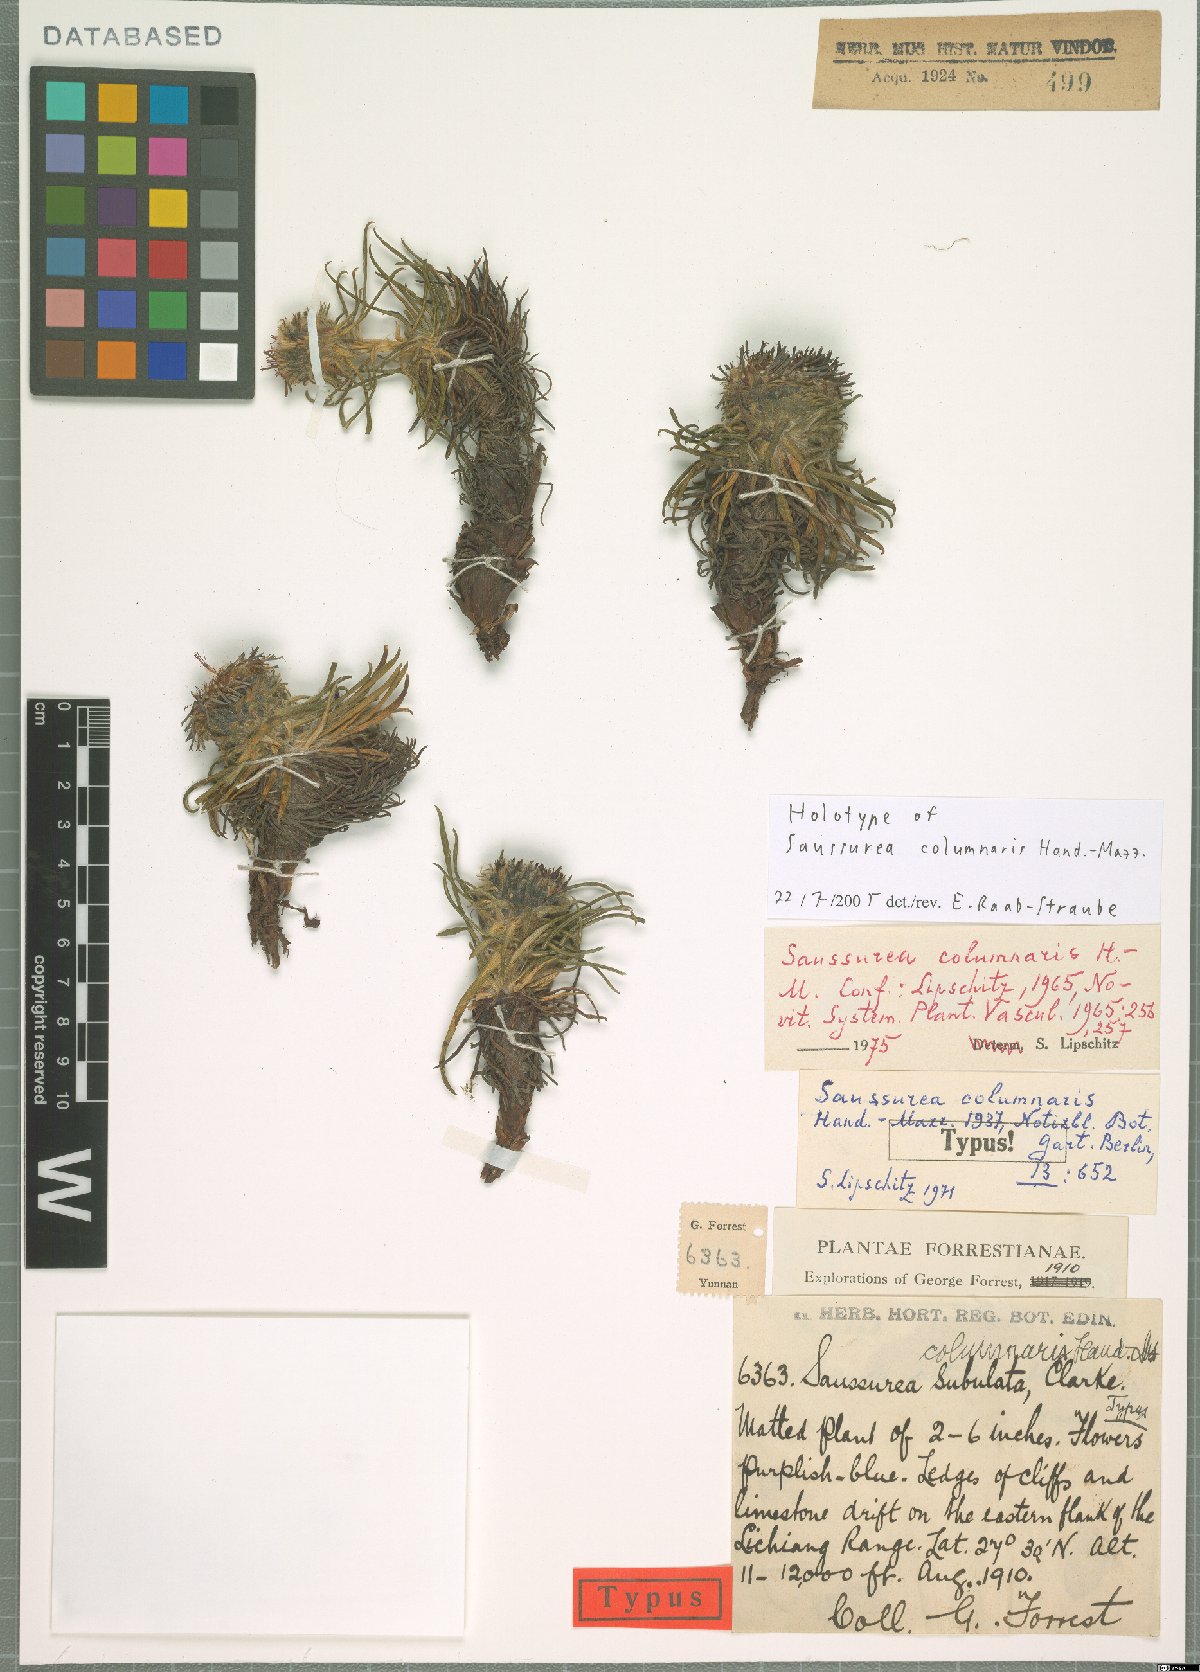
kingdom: Plantae
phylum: Tracheophyta
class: Magnoliopsida
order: Asterales
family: Asteraceae
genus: Saussurea
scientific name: Saussurea columnaris
